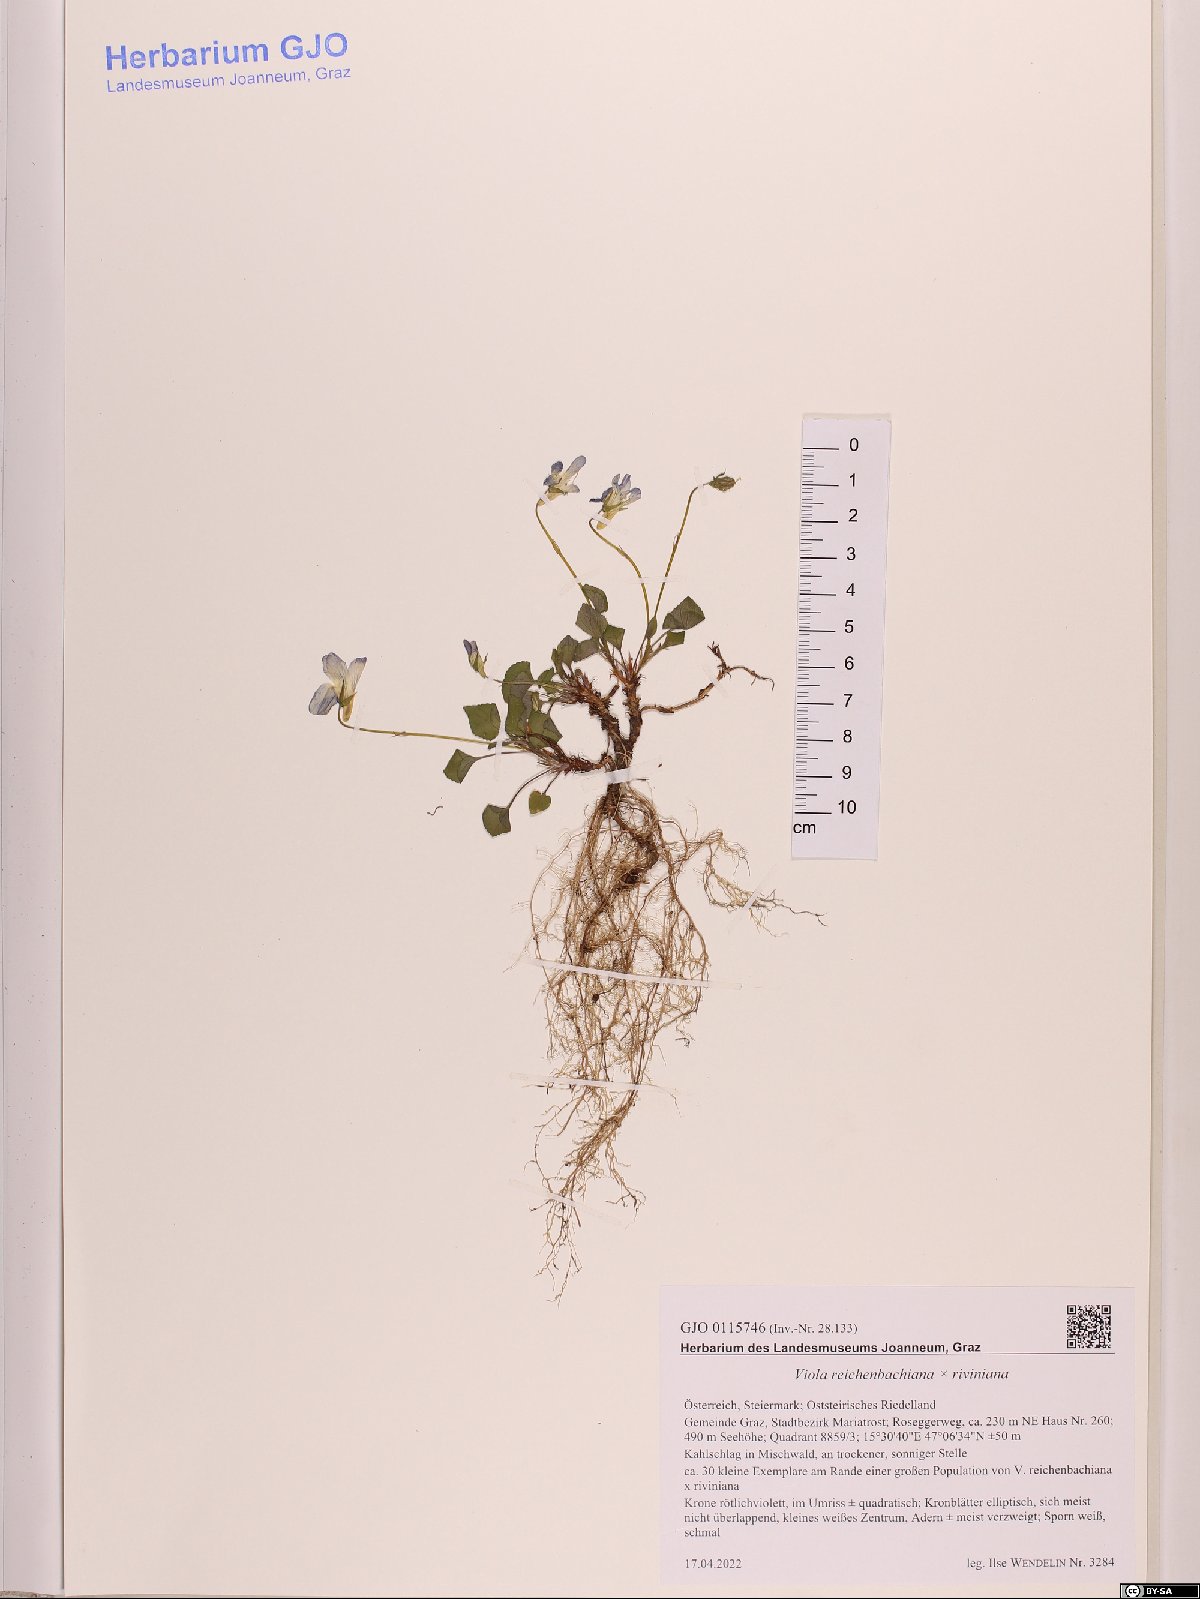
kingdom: Plantae
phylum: Tracheophyta
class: Magnoliopsida
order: Malpighiales
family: Violaceae
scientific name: Violaceae
